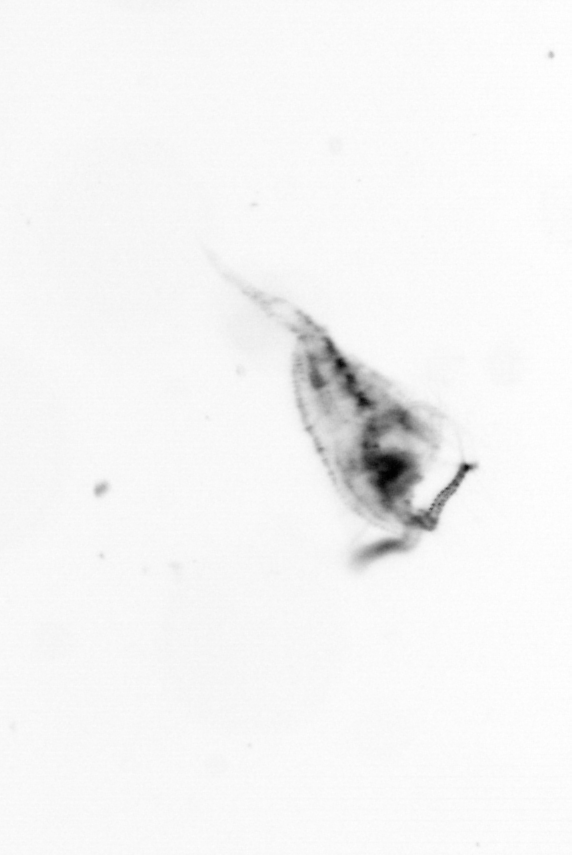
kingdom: Animalia
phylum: Arthropoda
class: Copepoda
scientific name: Copepoda
